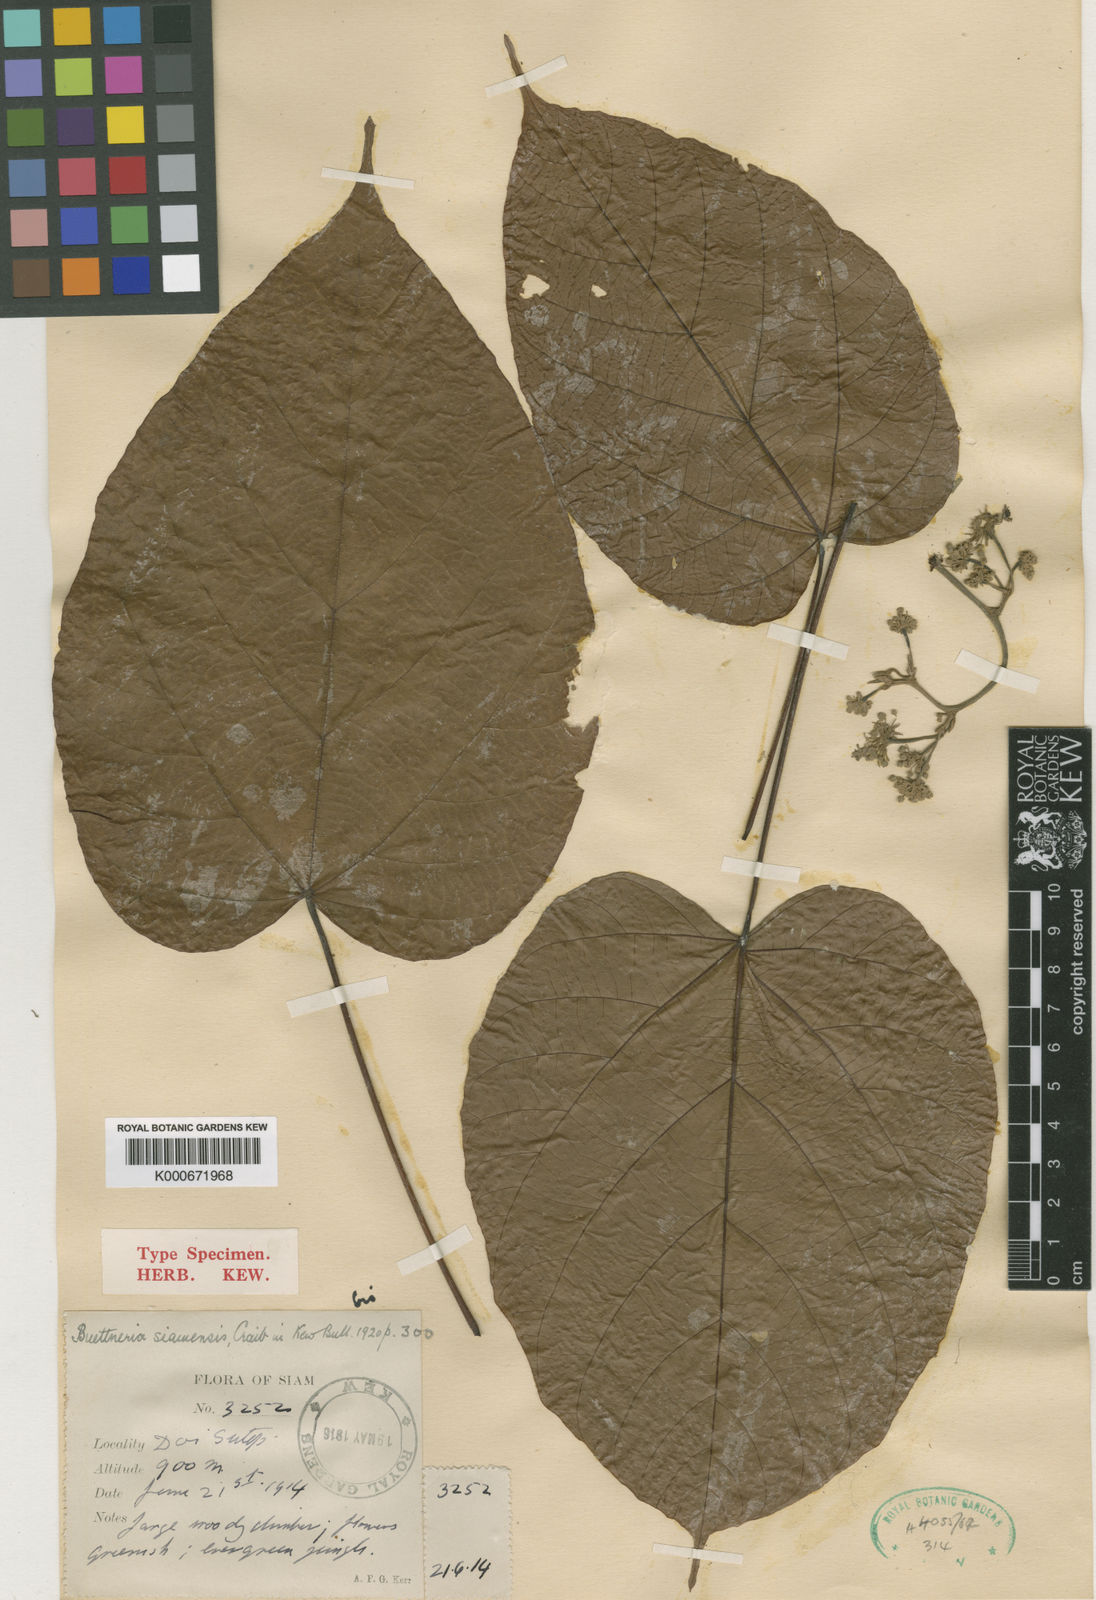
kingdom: Plantae
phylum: Tracheophyta
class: Magnoliopsida
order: Malvales
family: Malvaceae
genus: Byttneria
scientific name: Byttneria grandifolia
